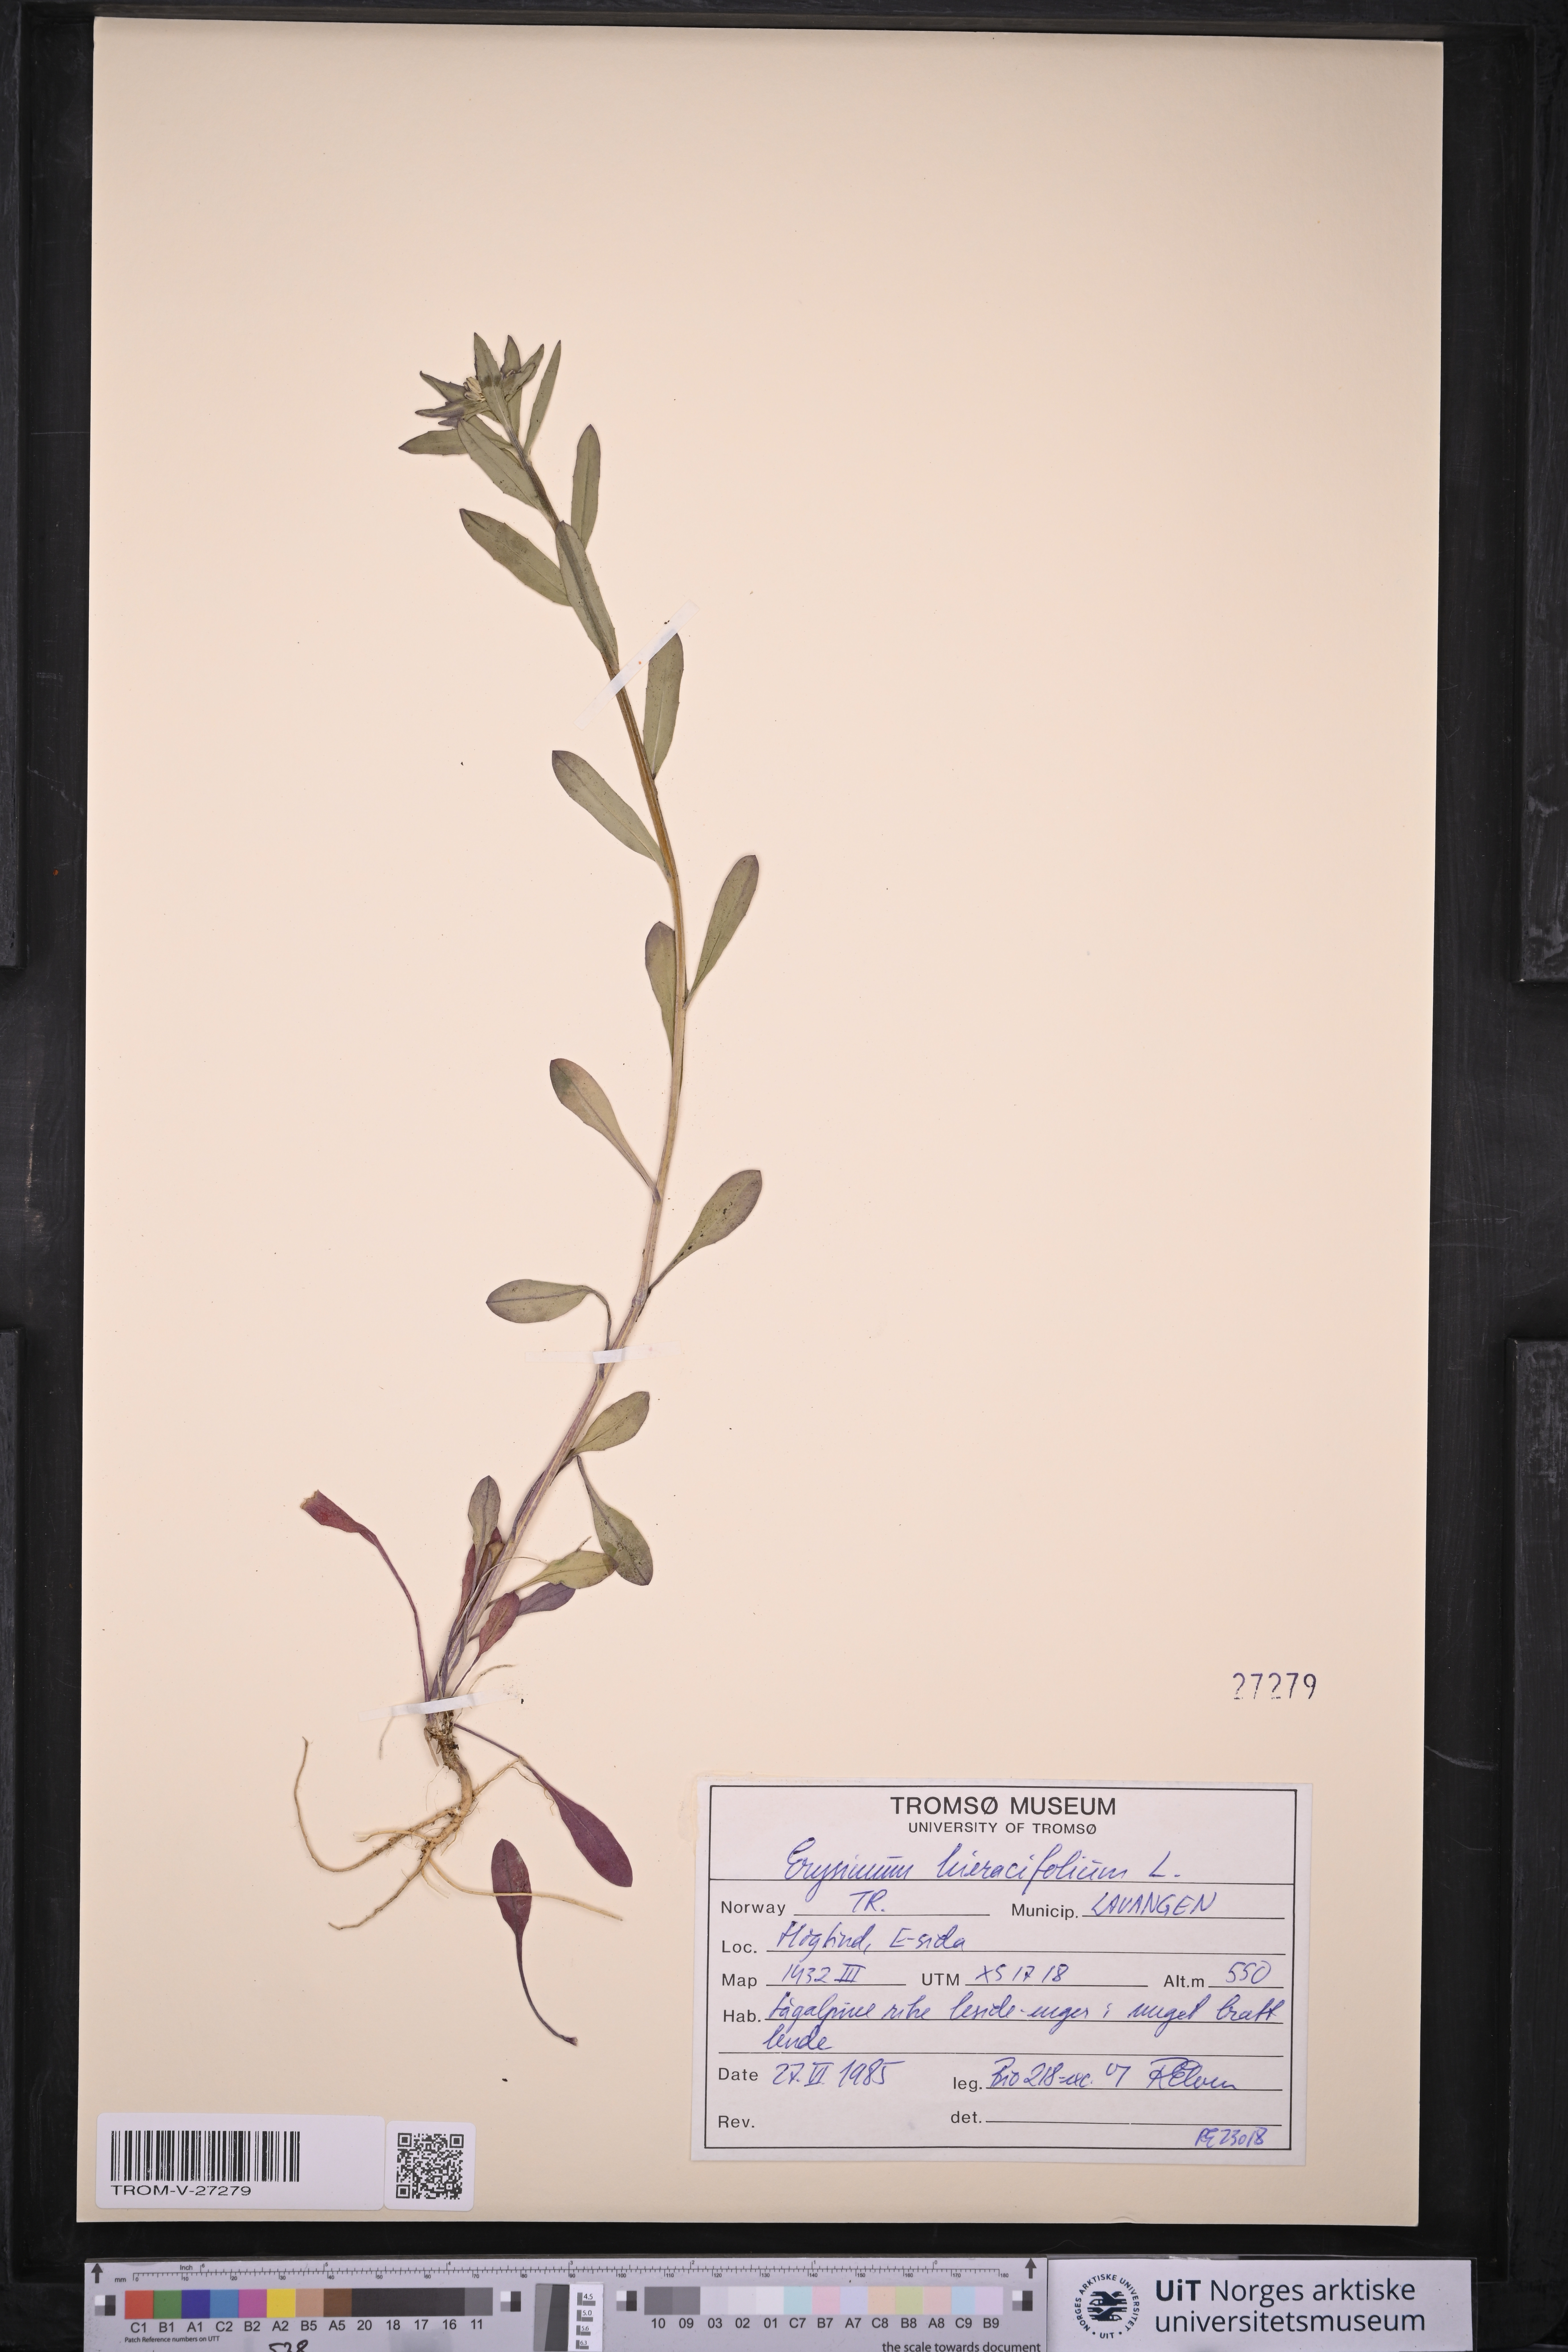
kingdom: Plantae
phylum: Tracheophyta
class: Magnoliopsida
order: Brassicales
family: Brassicaceae
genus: Erysimum
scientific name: Erysimum virgatum
